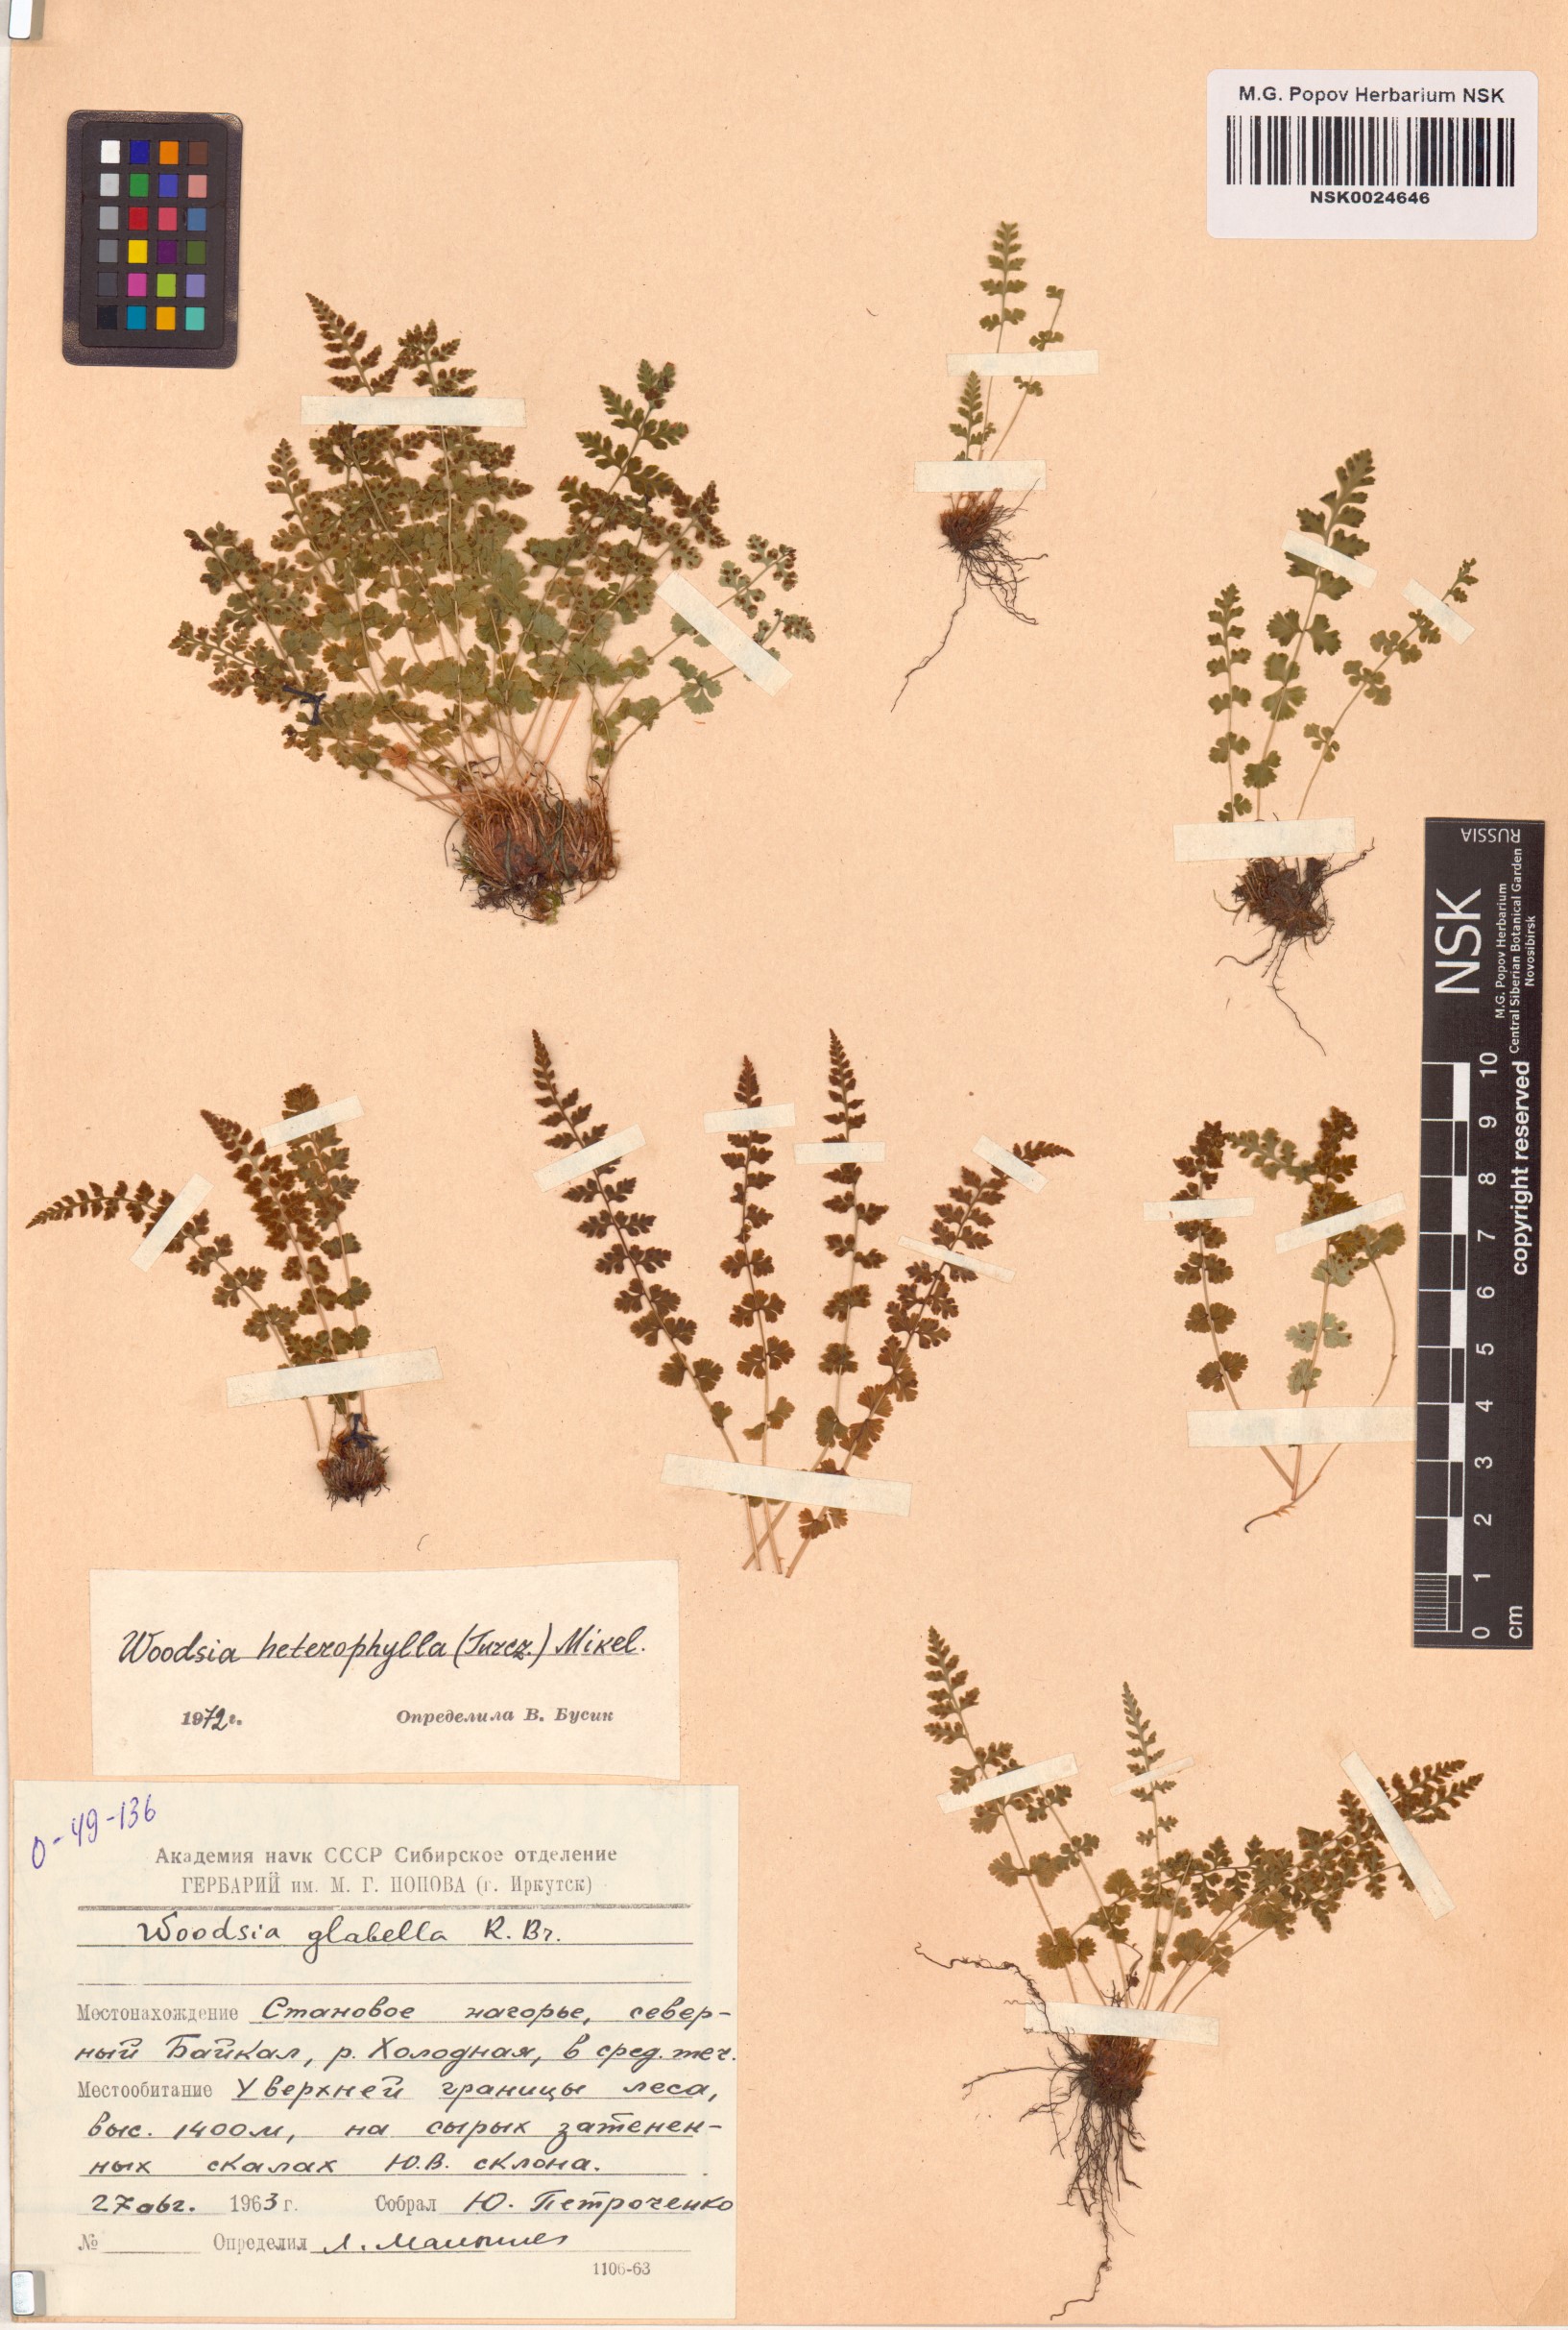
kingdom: Plantae
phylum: Tracheophyta
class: Polypodiopsida
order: Polypodiales
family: Woodsiaceae
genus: Woodsia
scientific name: Woodsia pulchella
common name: Graceful woodsia
